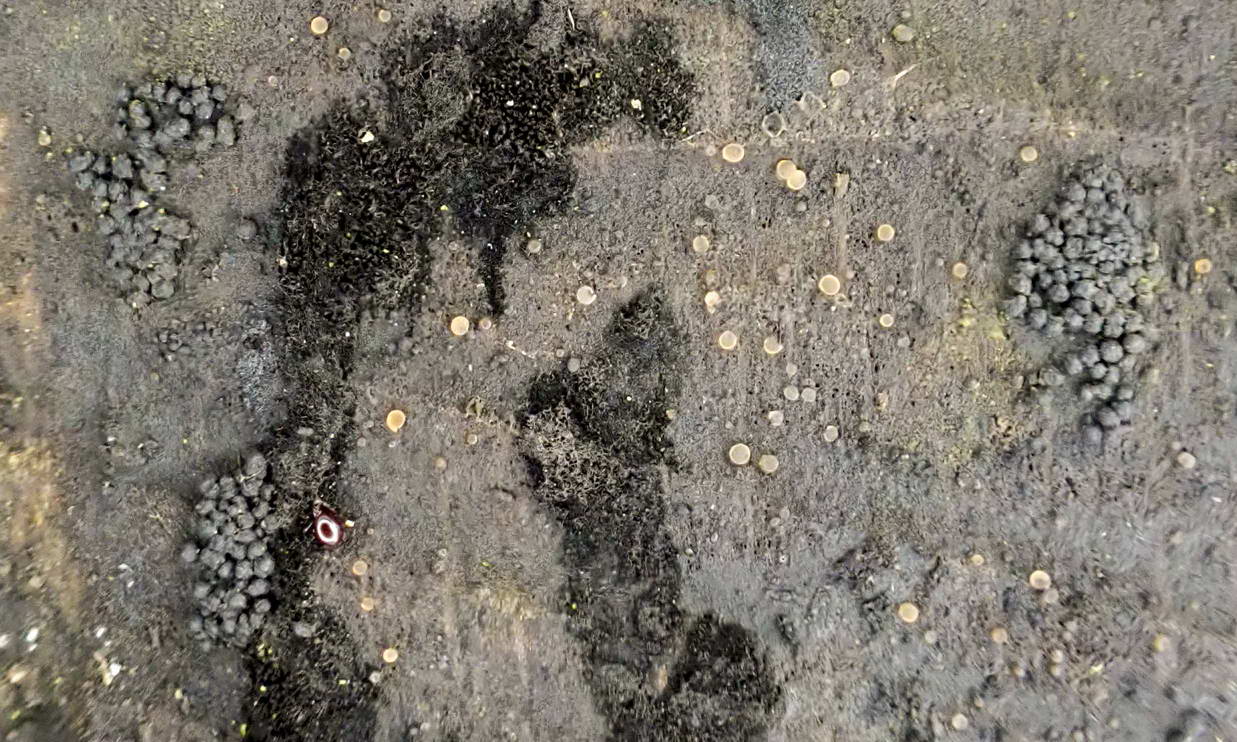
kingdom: Fungi
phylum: Ascomycota
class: Leotiomycetes
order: Helotiales
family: Helotiaceae
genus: Bispora
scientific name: Bispora pallescens
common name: måtte-snitskive
